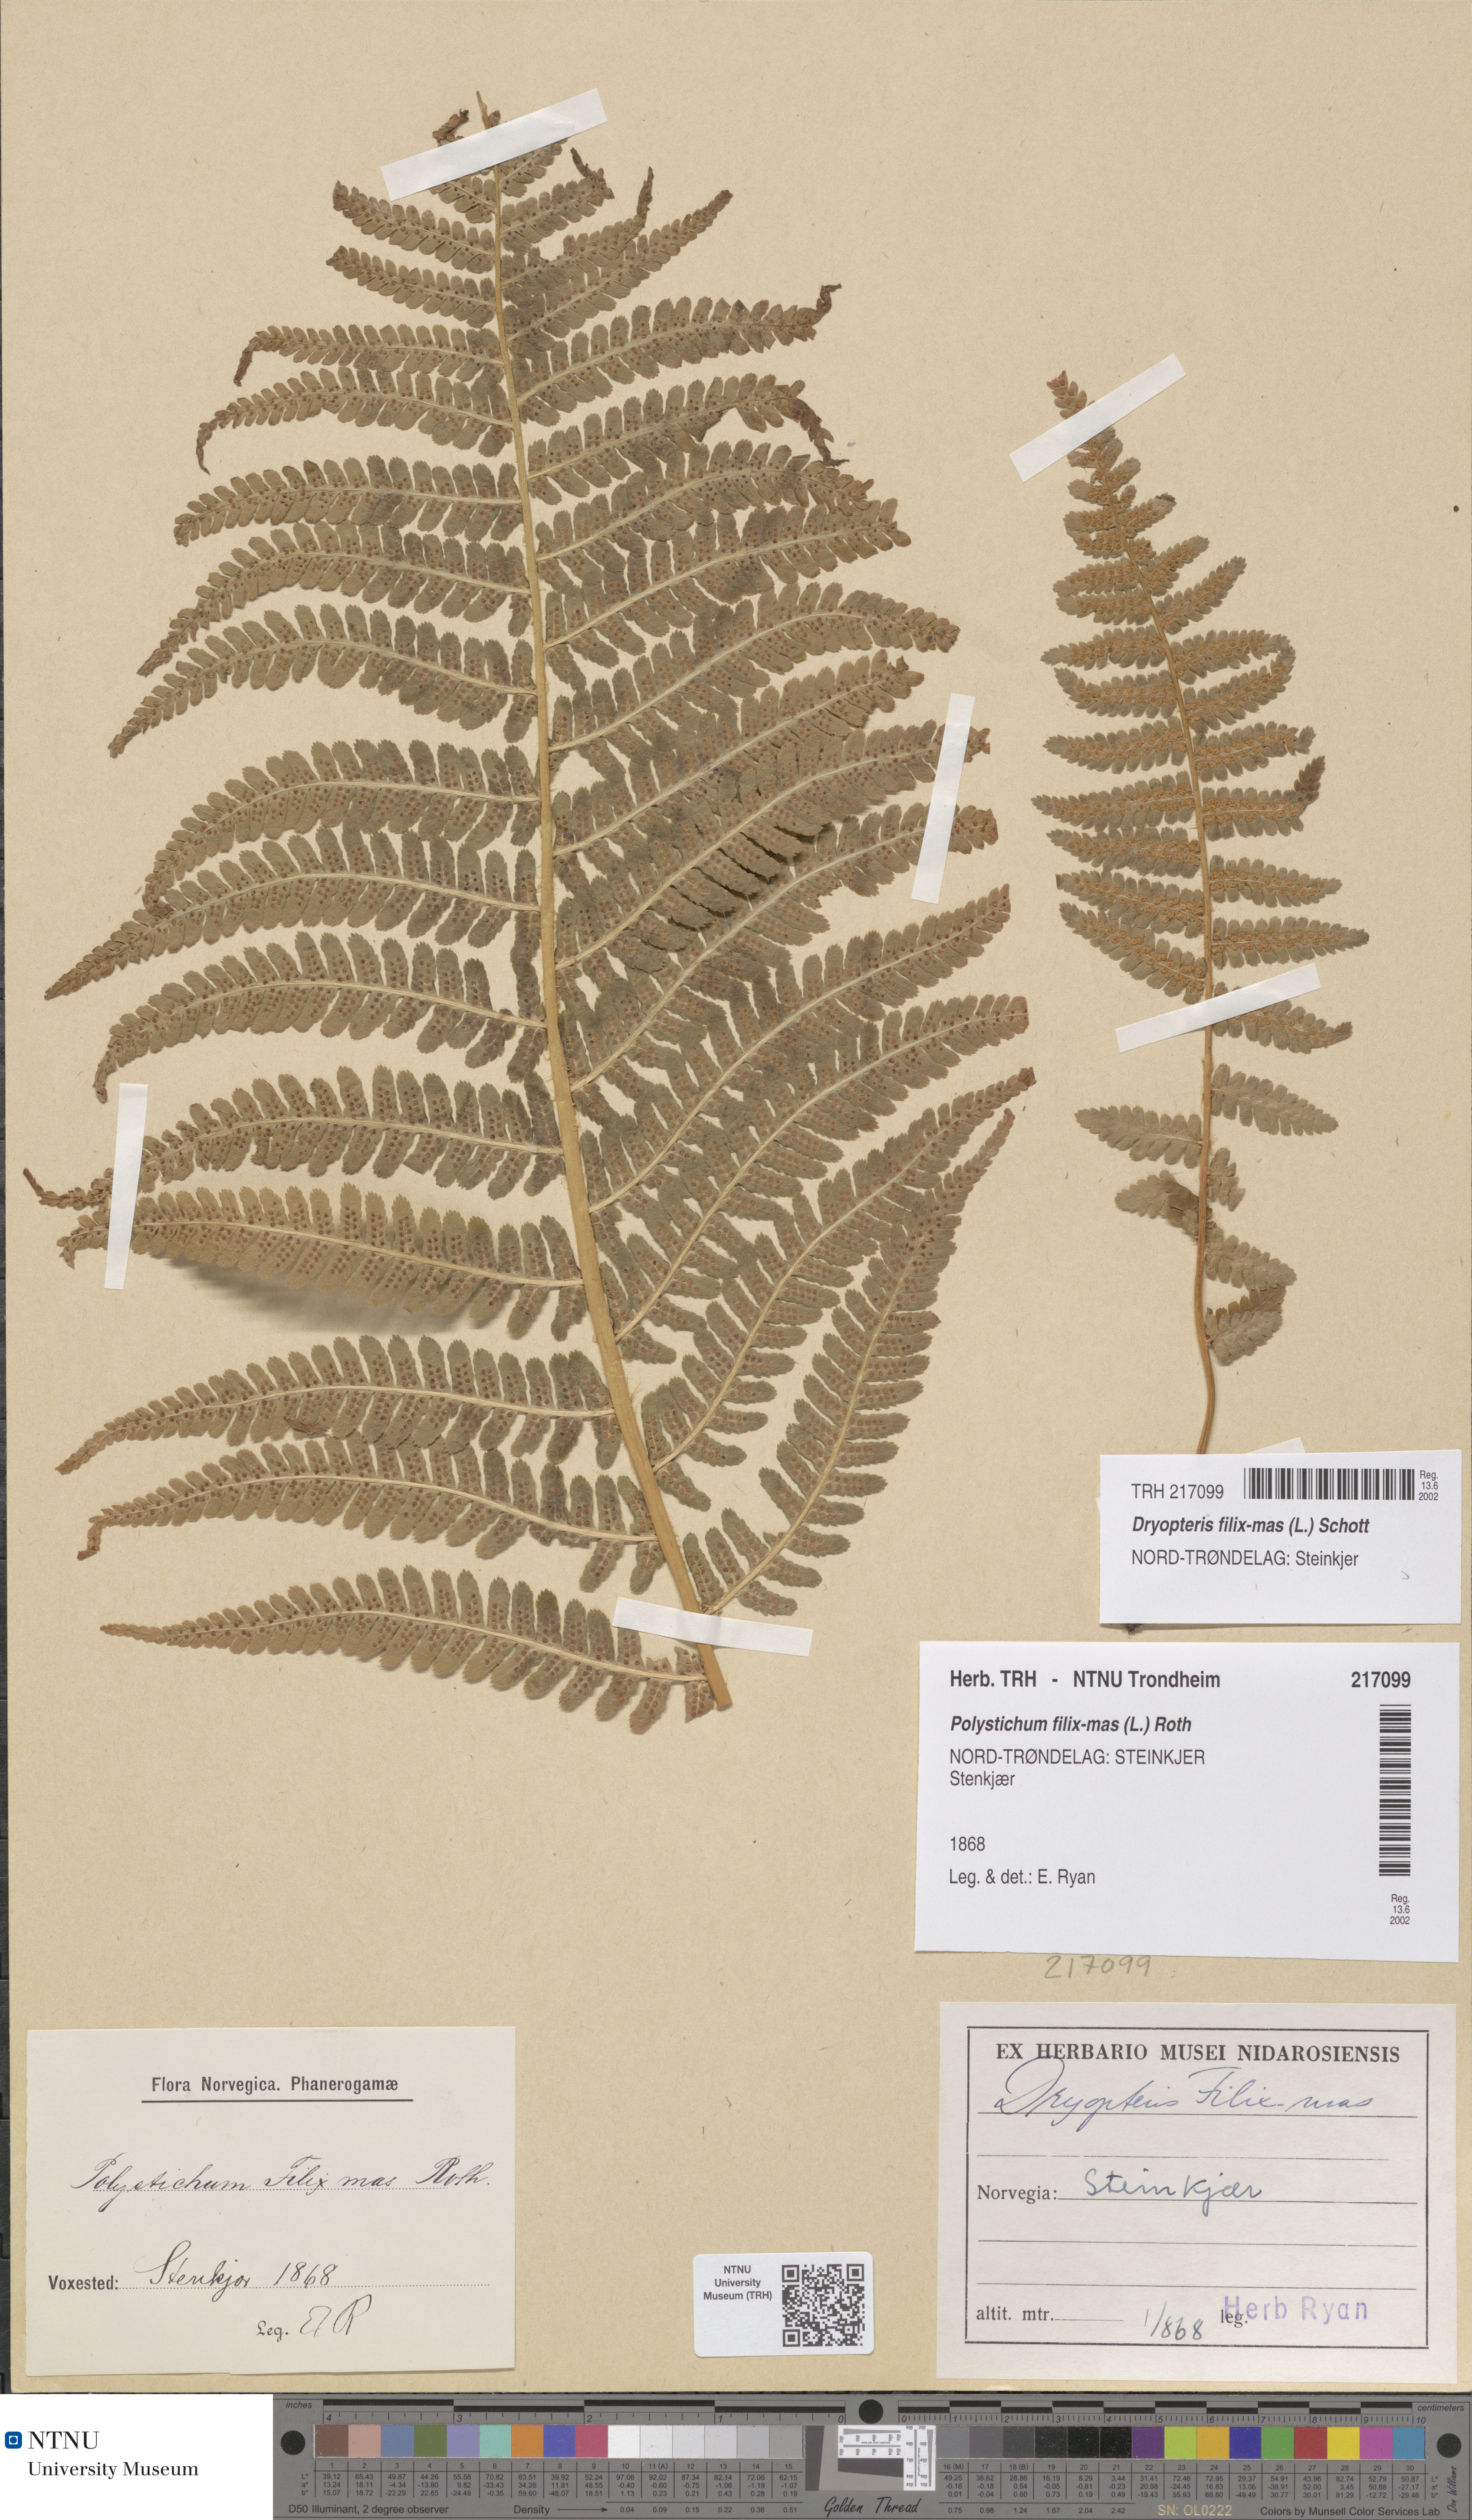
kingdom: Plantae
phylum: Tracheophyta
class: Polypodiopsida
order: Polypodiales
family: Dryopteridaceae
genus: Dryopteris
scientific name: Dryopteris filix-mas
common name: Male fern
